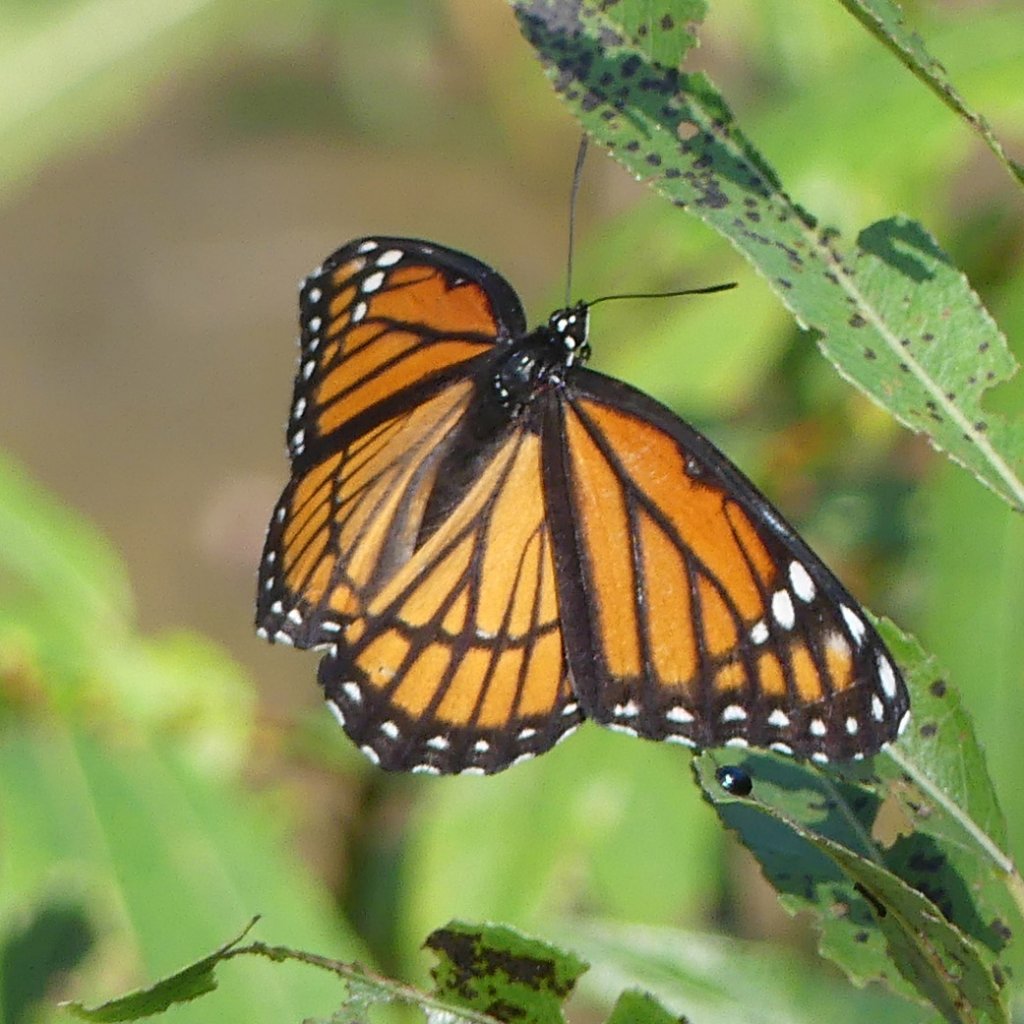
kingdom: Animalia
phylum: Arthropoda
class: Insecta
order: Lepidoptera
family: Nymphalidae
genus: Limenitis
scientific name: Limenitis archippus
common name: Viceroy
